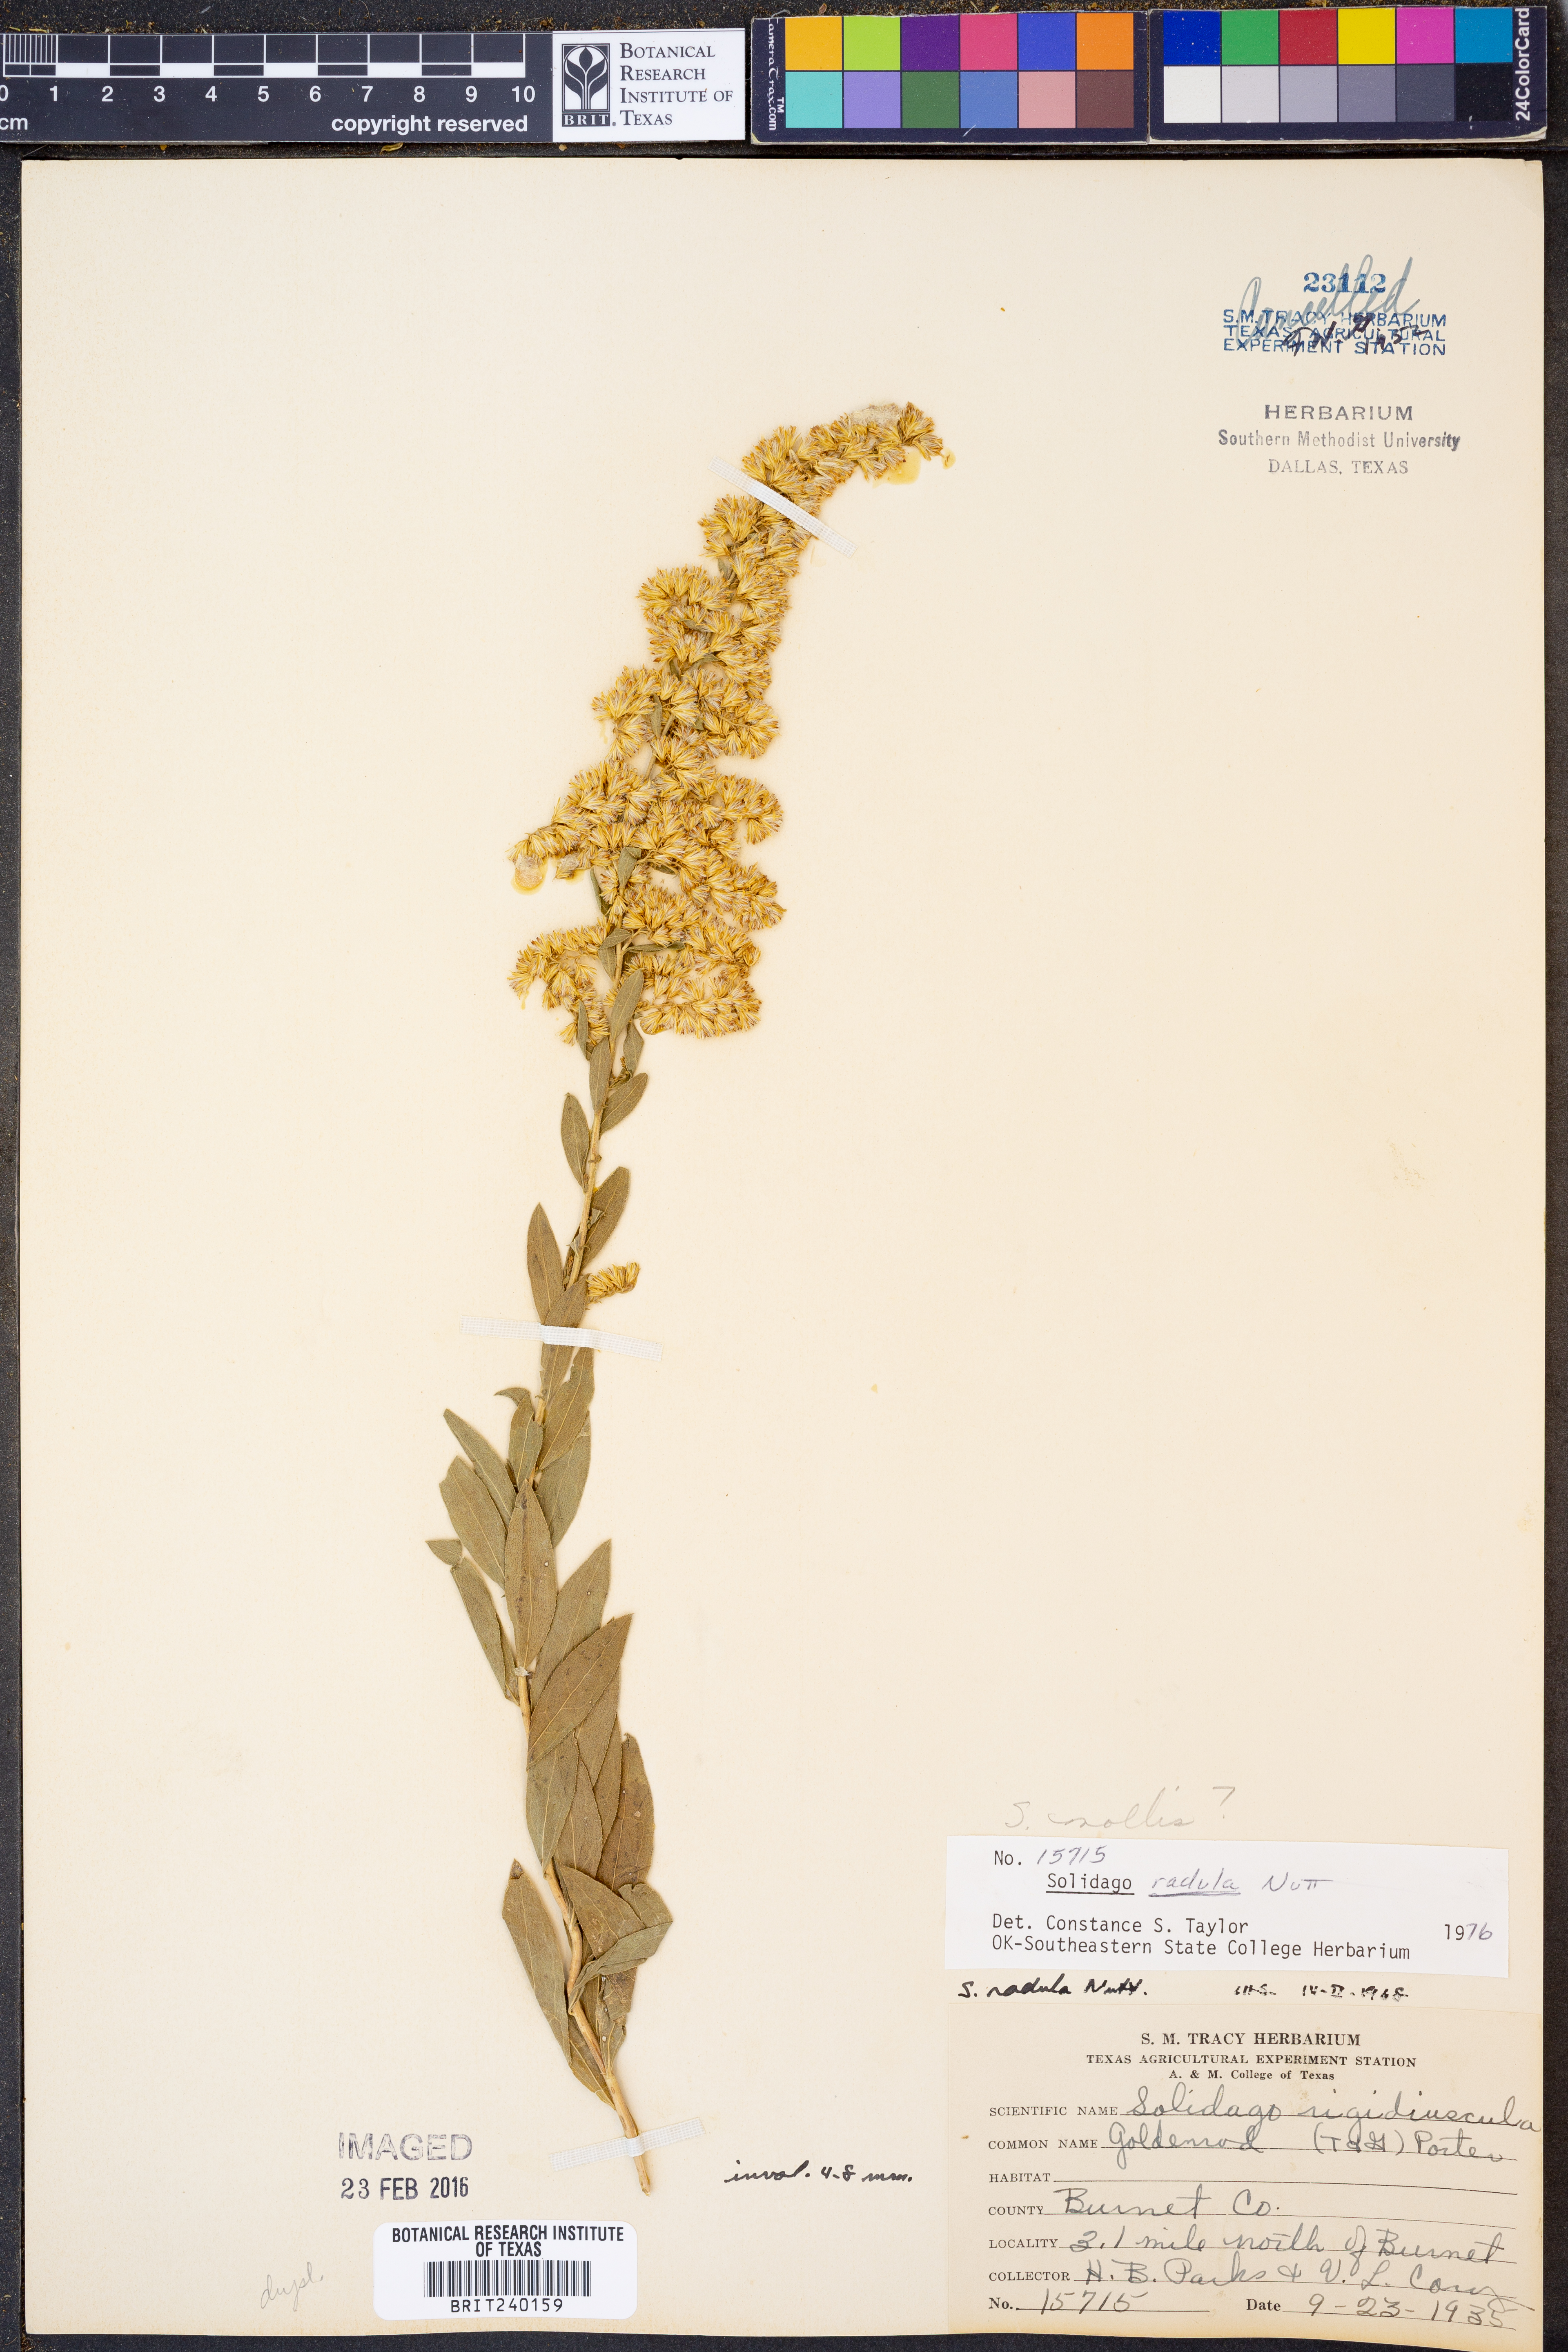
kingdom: Plantae
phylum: Tracheophyta
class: Magnoliopsida
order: Asterales
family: Asteraceae
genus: Solidago
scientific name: Solidago mollis
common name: Ashly goldenrod
